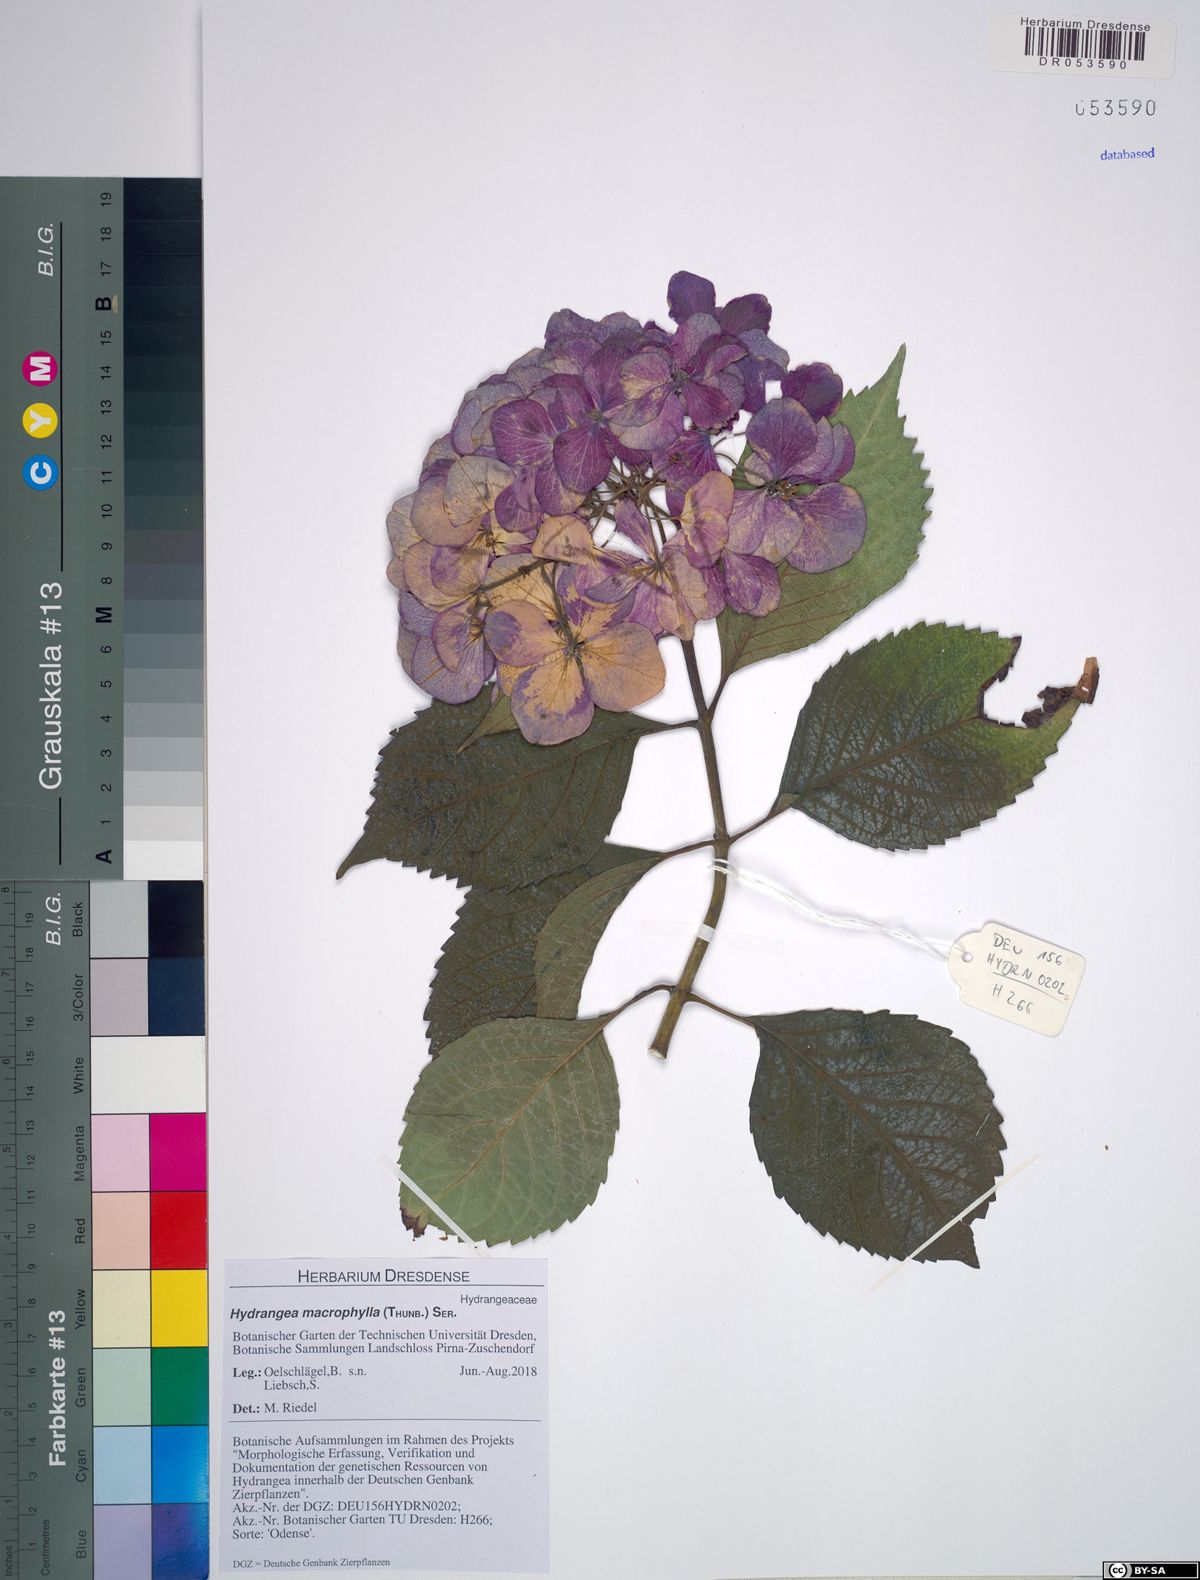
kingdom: Plantae
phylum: Tracheophyta
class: Magnoliopsida
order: Cornales
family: Hydrangeaceae
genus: Hydrangea
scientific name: Hydrangea macrophylla
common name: Hydrangea
